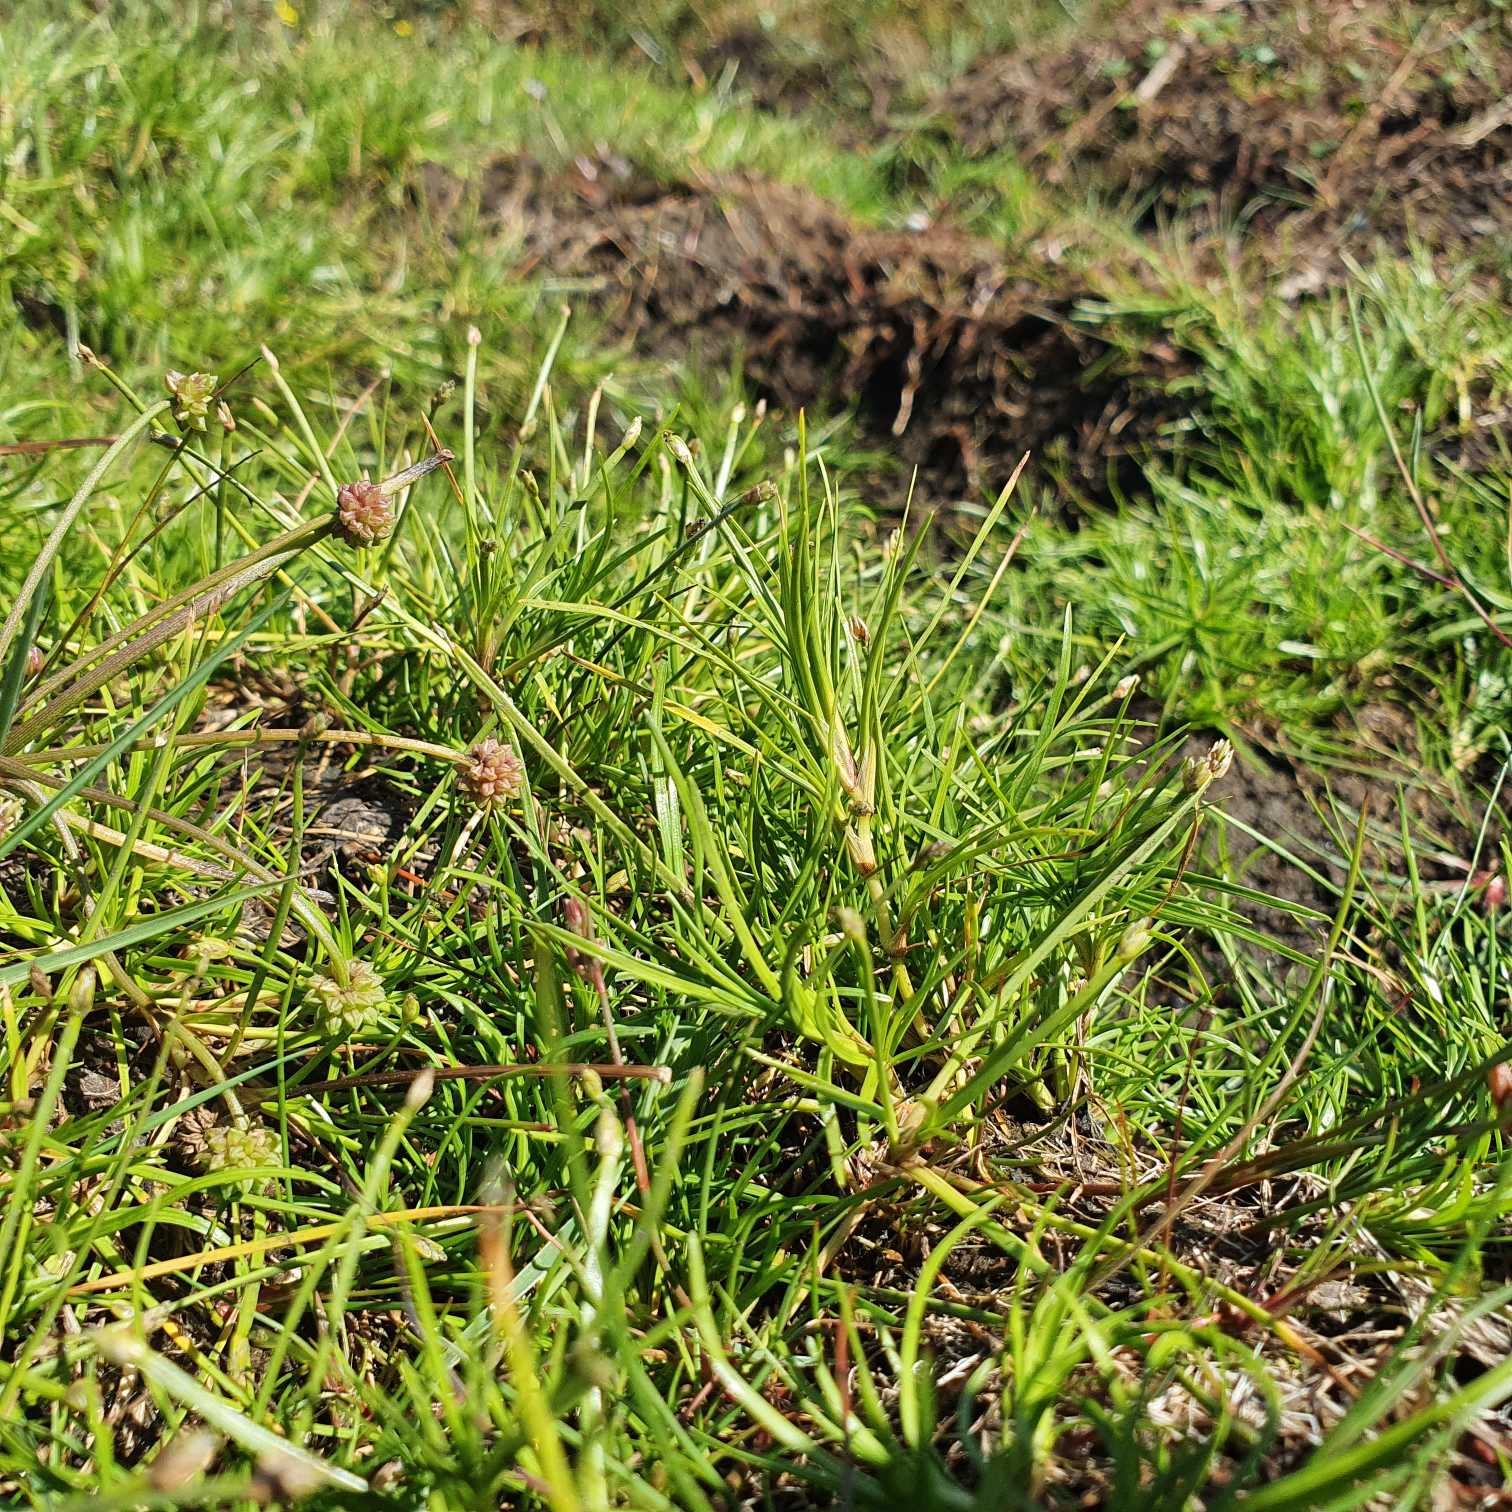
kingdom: Plantae
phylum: Tracheophyta
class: Liliopsida
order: Poales
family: Cyperaceae
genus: Isolepis
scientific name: Isolepis fluitans
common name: Flydende kogleaks
